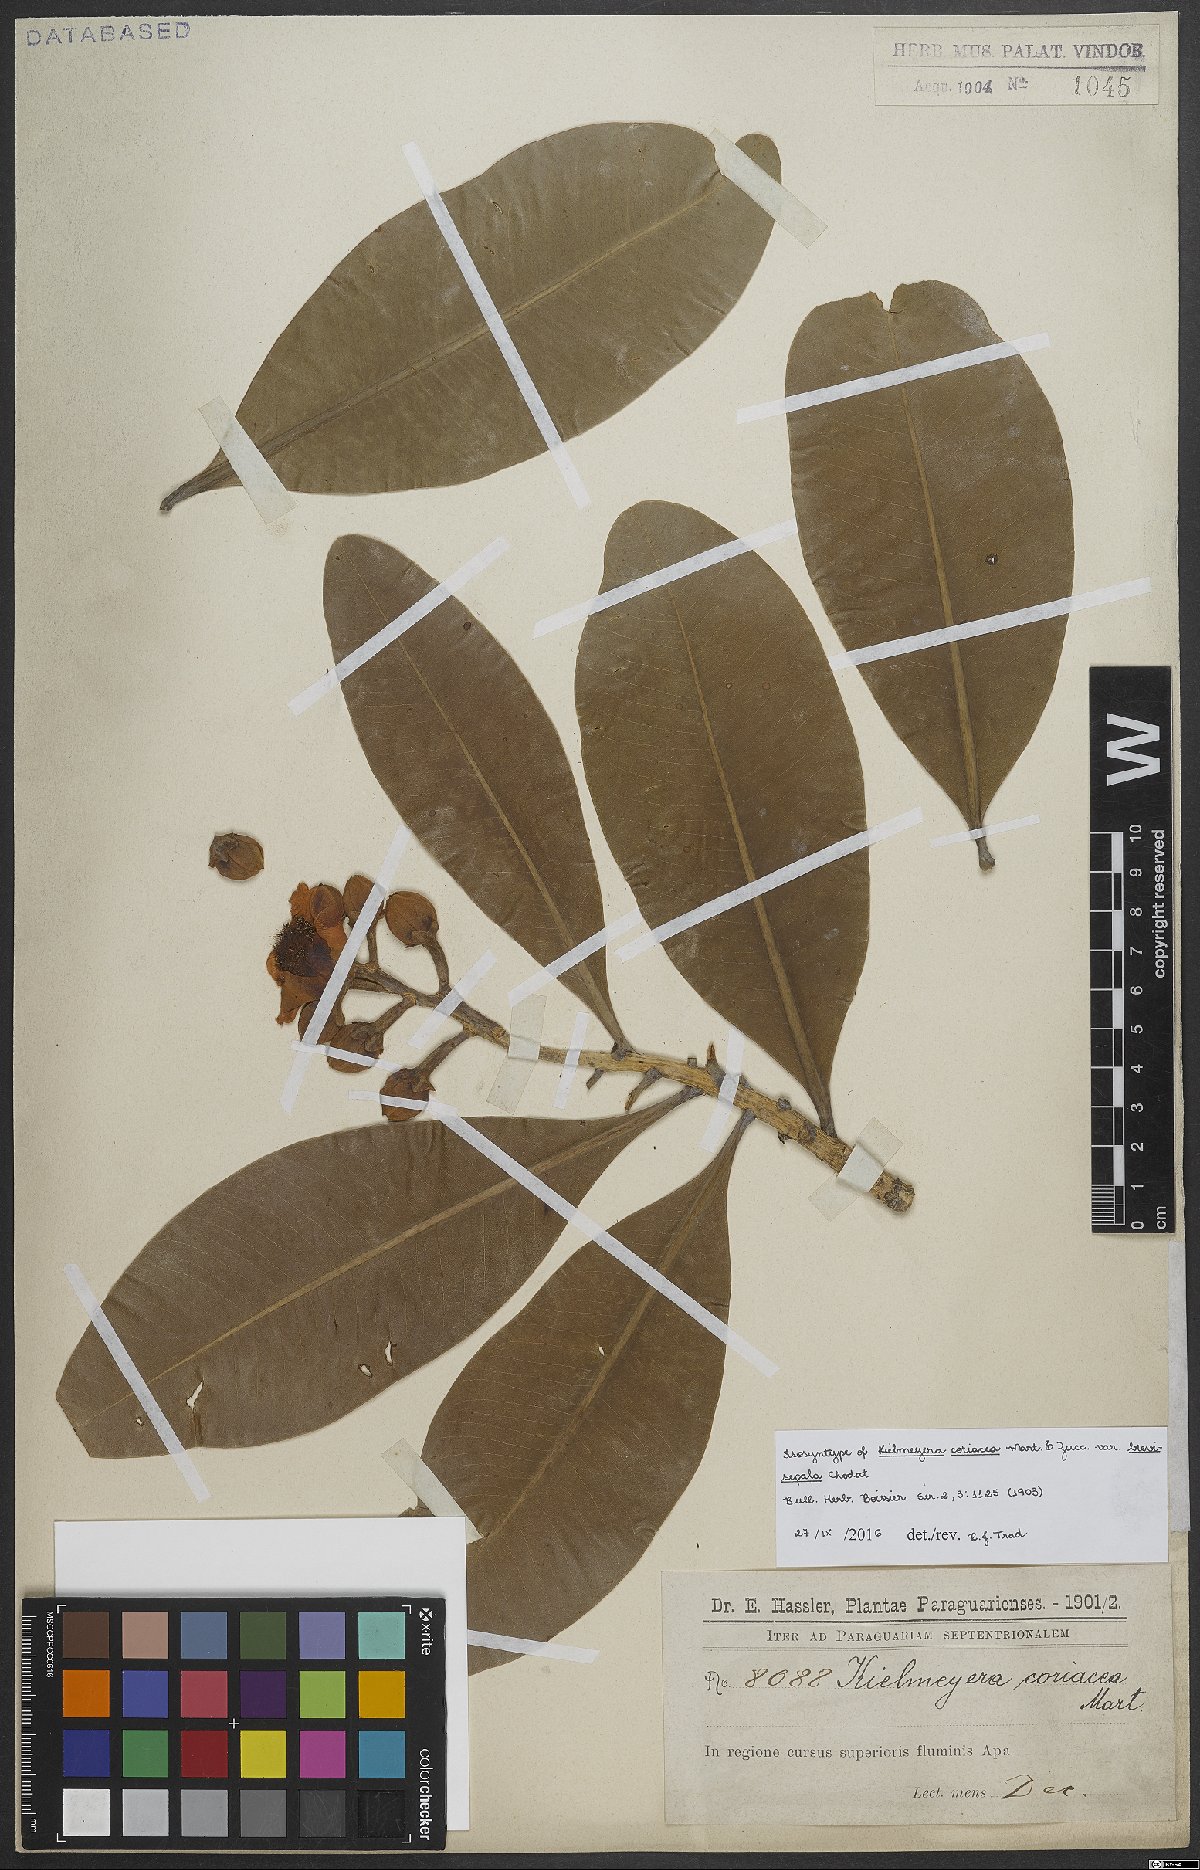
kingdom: Plantae
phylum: Tracheophyta
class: Magnoliopsida
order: Malpighiales
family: Calophyllaceae
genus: Kielmeyera
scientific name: Kielmeyera coriacea
